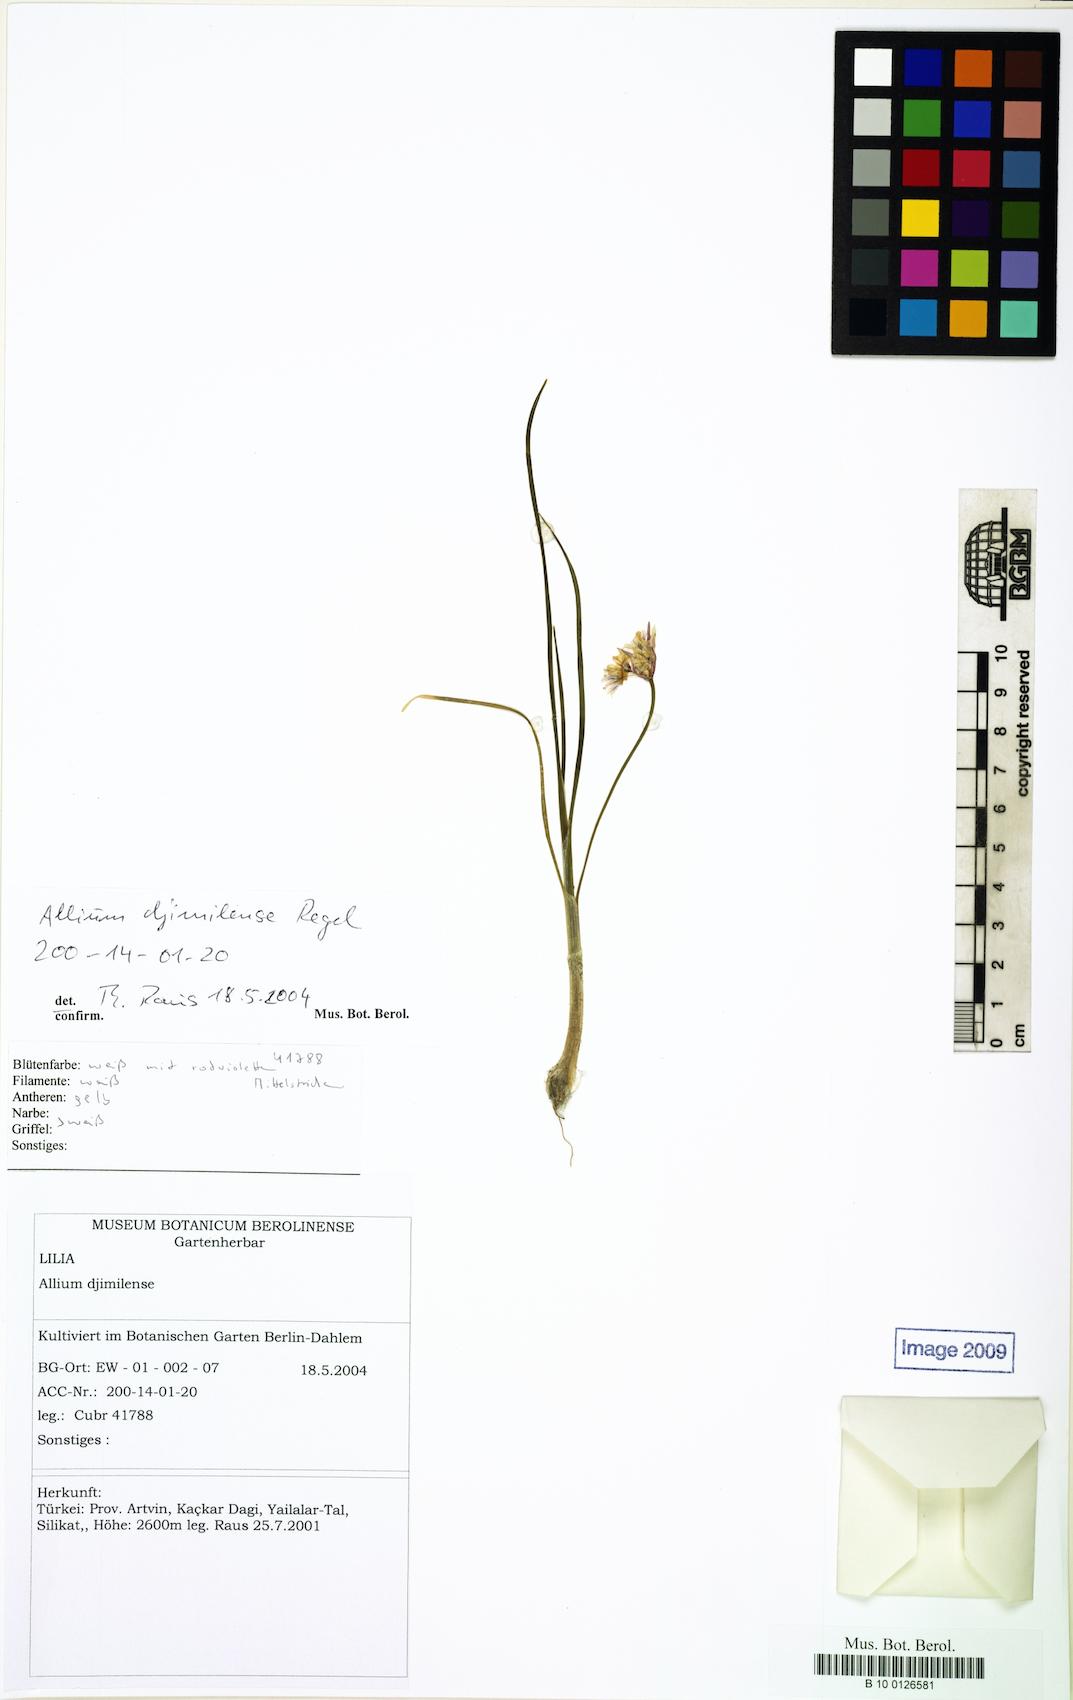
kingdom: Plantae
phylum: Tracheophyta
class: Liliopsida
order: Asparagales
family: Amaryllidaceae
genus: Allium
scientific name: Allium djimilense
